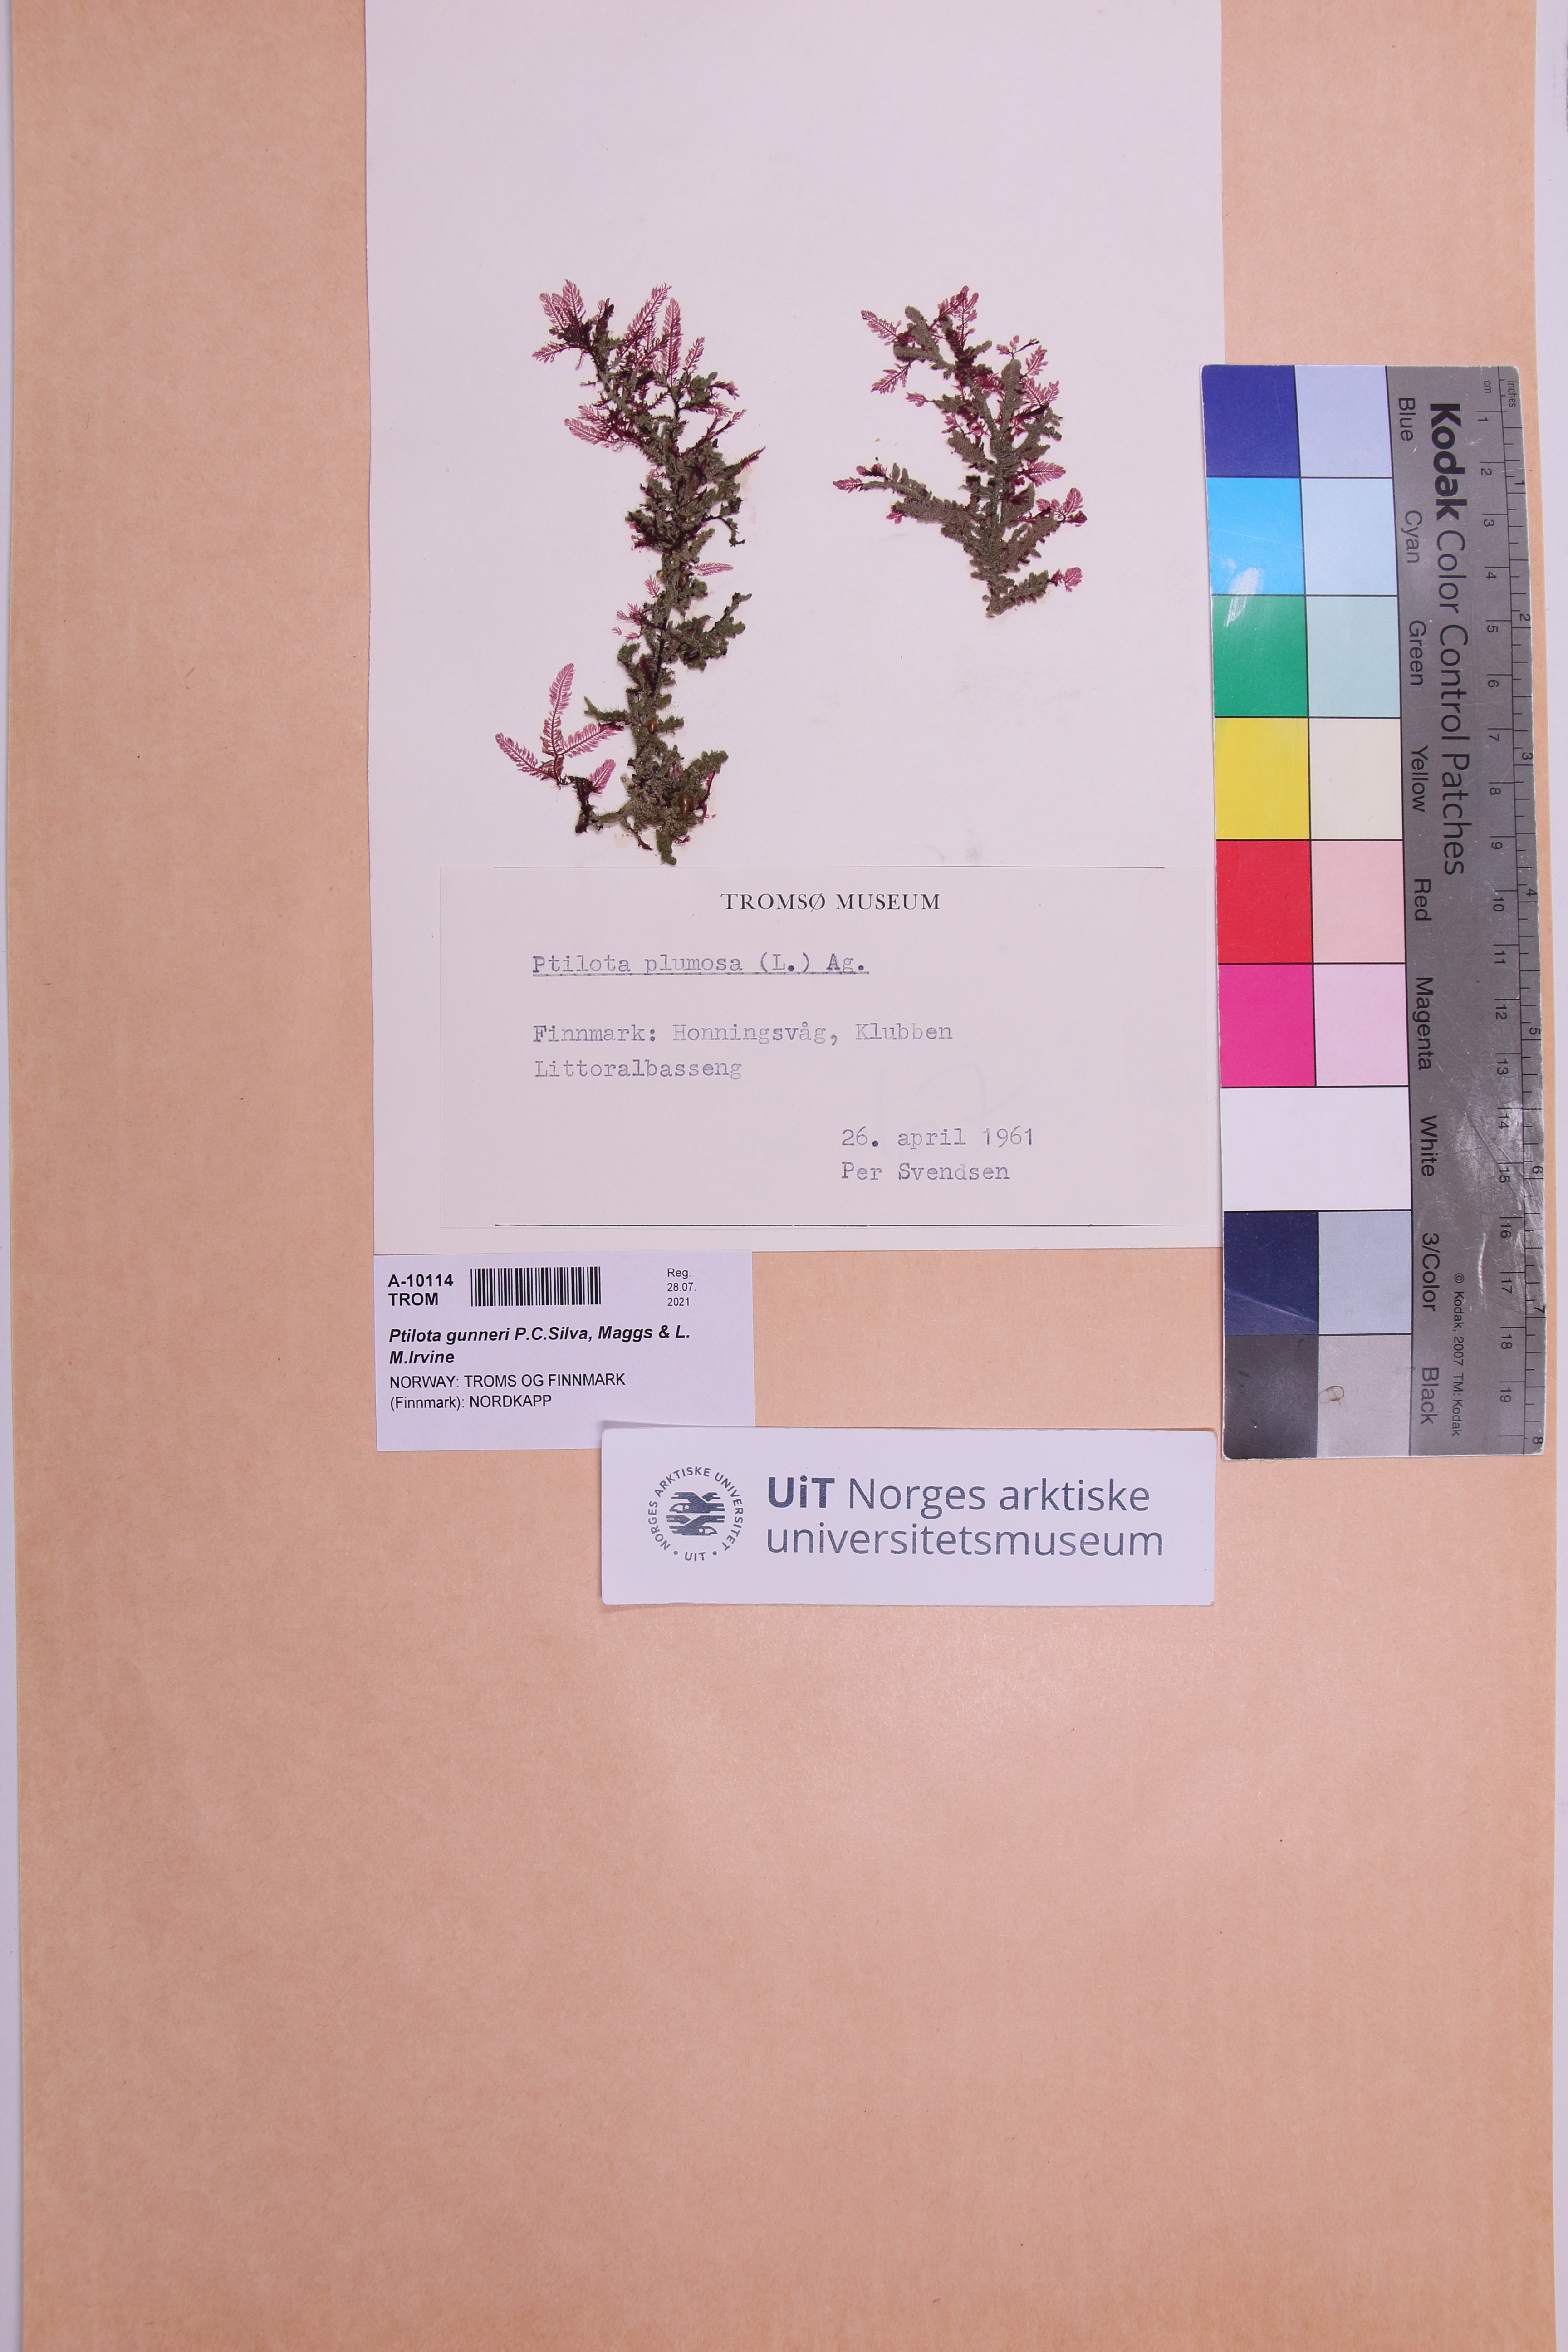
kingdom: Plantae
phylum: Rhodophyta
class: Florideophyceae
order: Ceramiales
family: Wrangeliaceae
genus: Ptilota
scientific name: Ptilota gunneri
